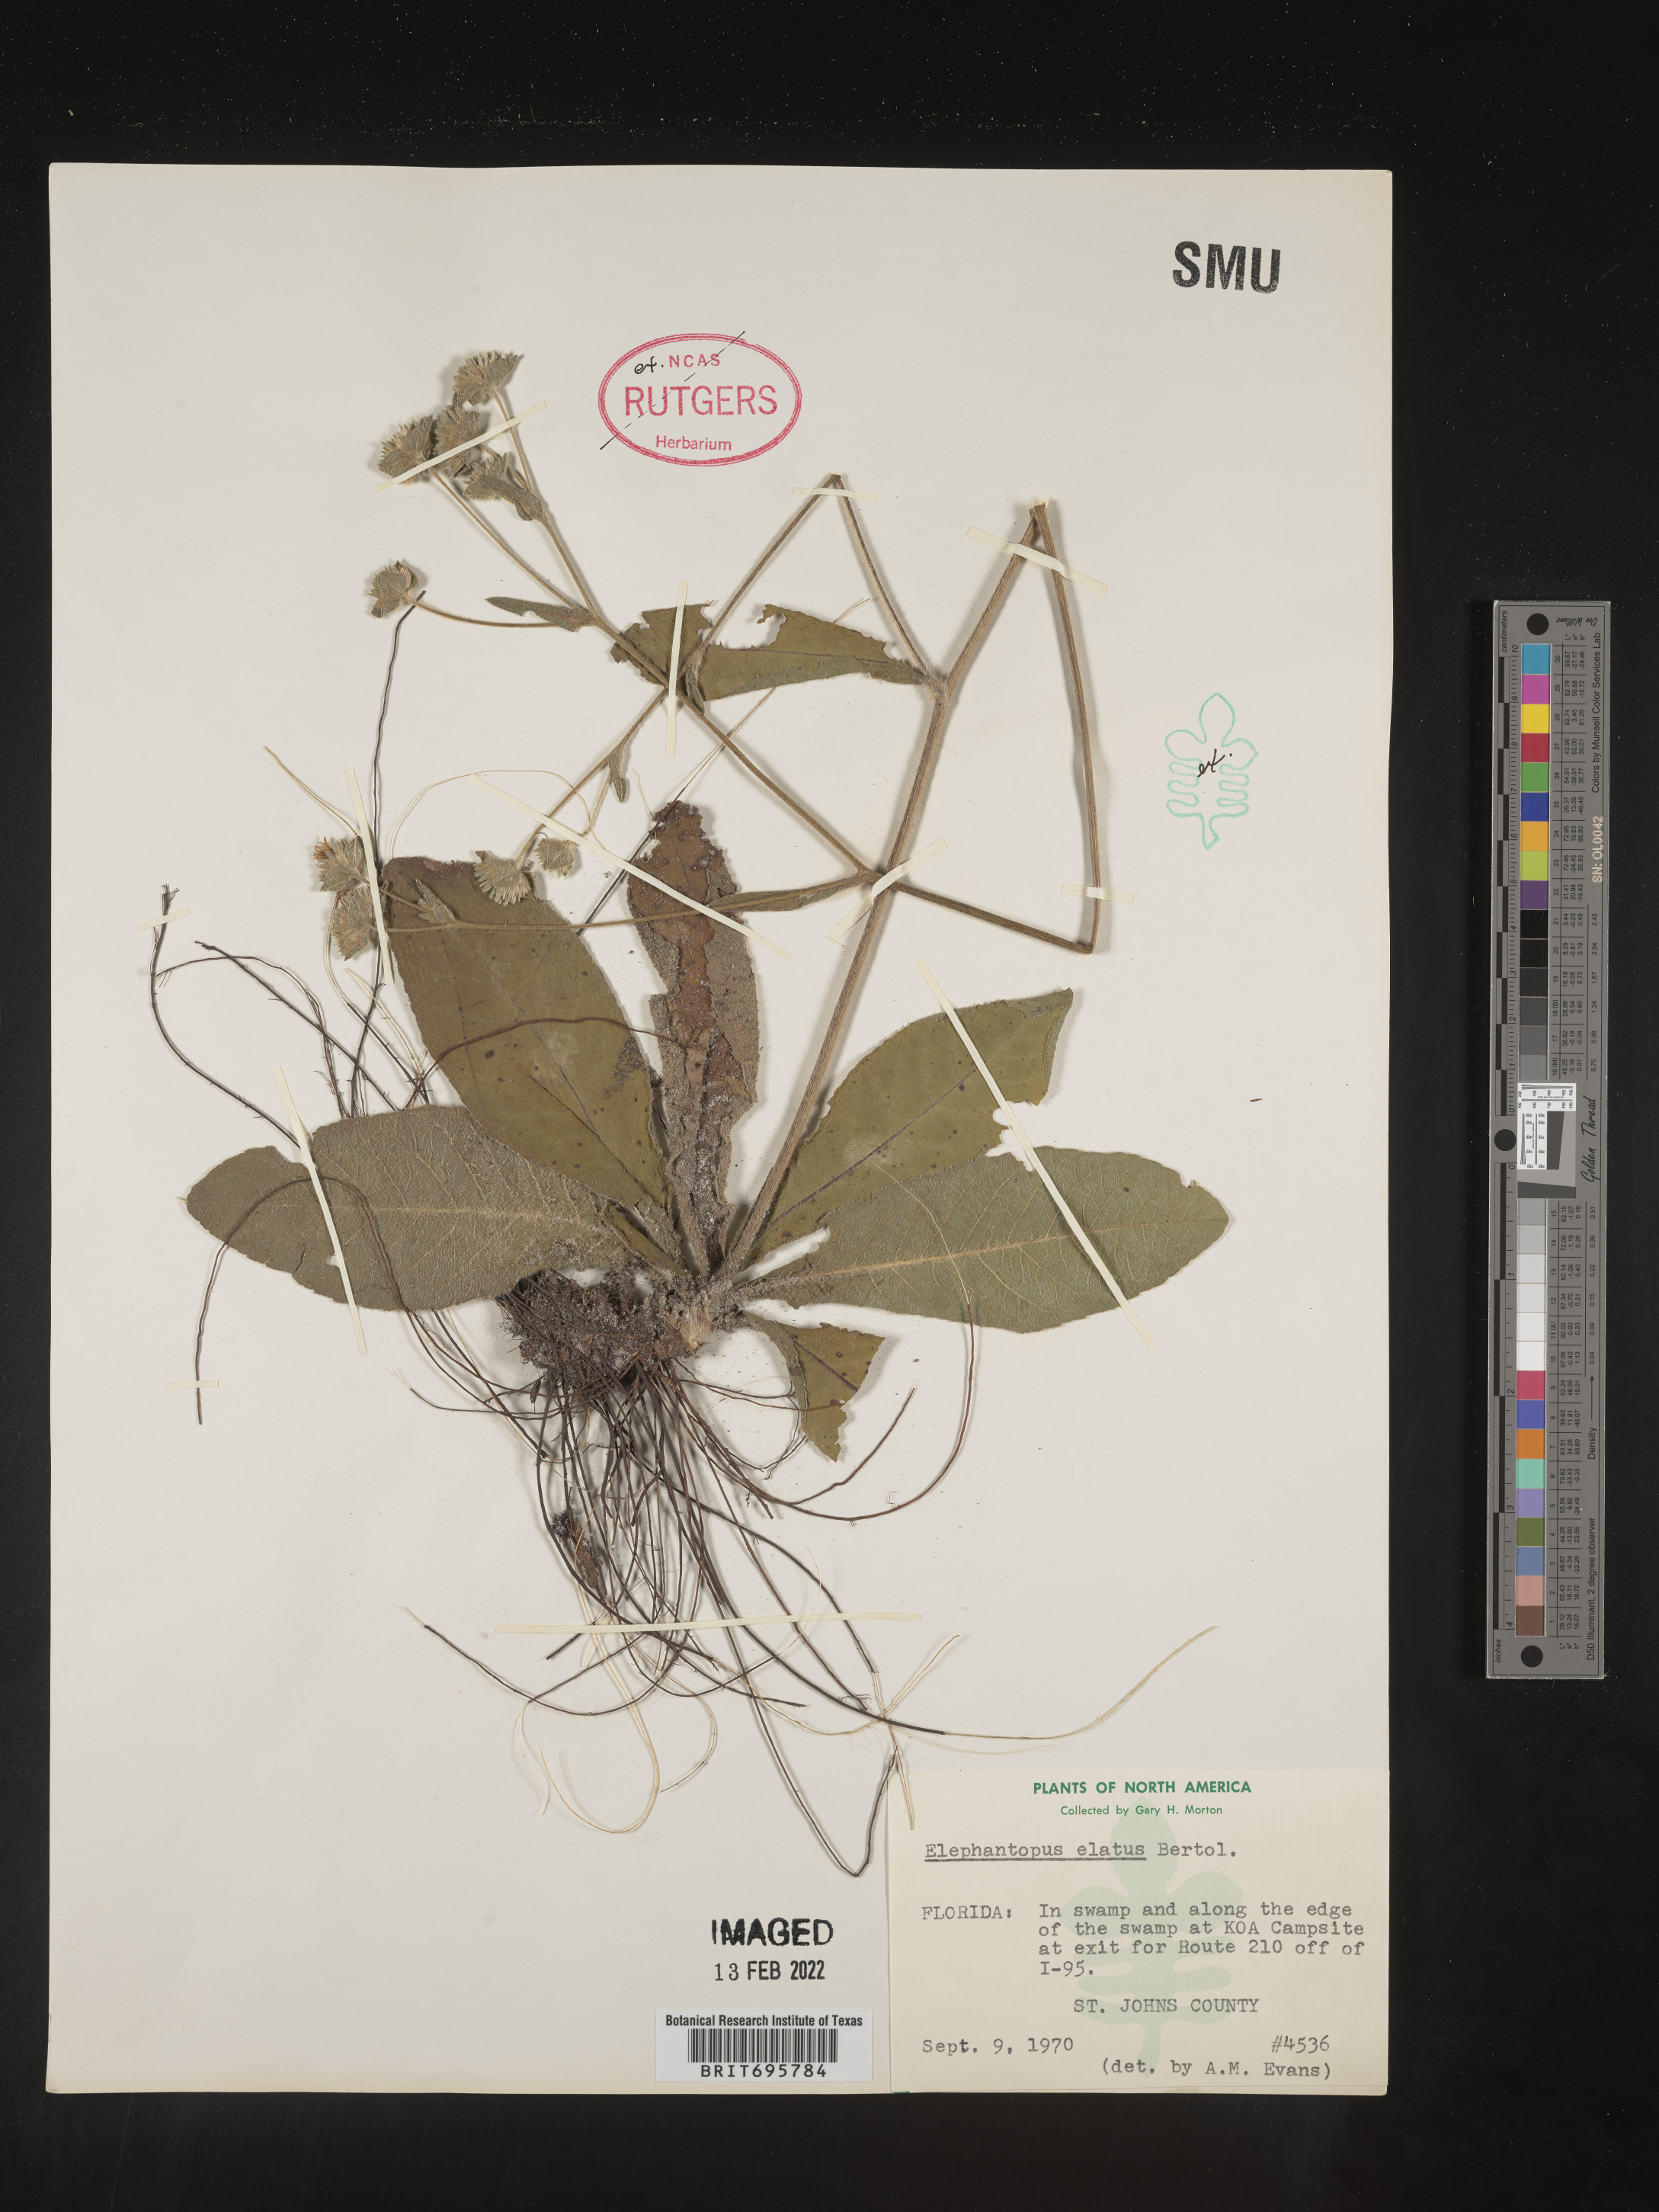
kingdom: Plantae
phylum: Tracheophyta
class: Magnoliopsida
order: Asterales
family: Asteraceae
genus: Elephantopus
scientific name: Elephantopus elatus
